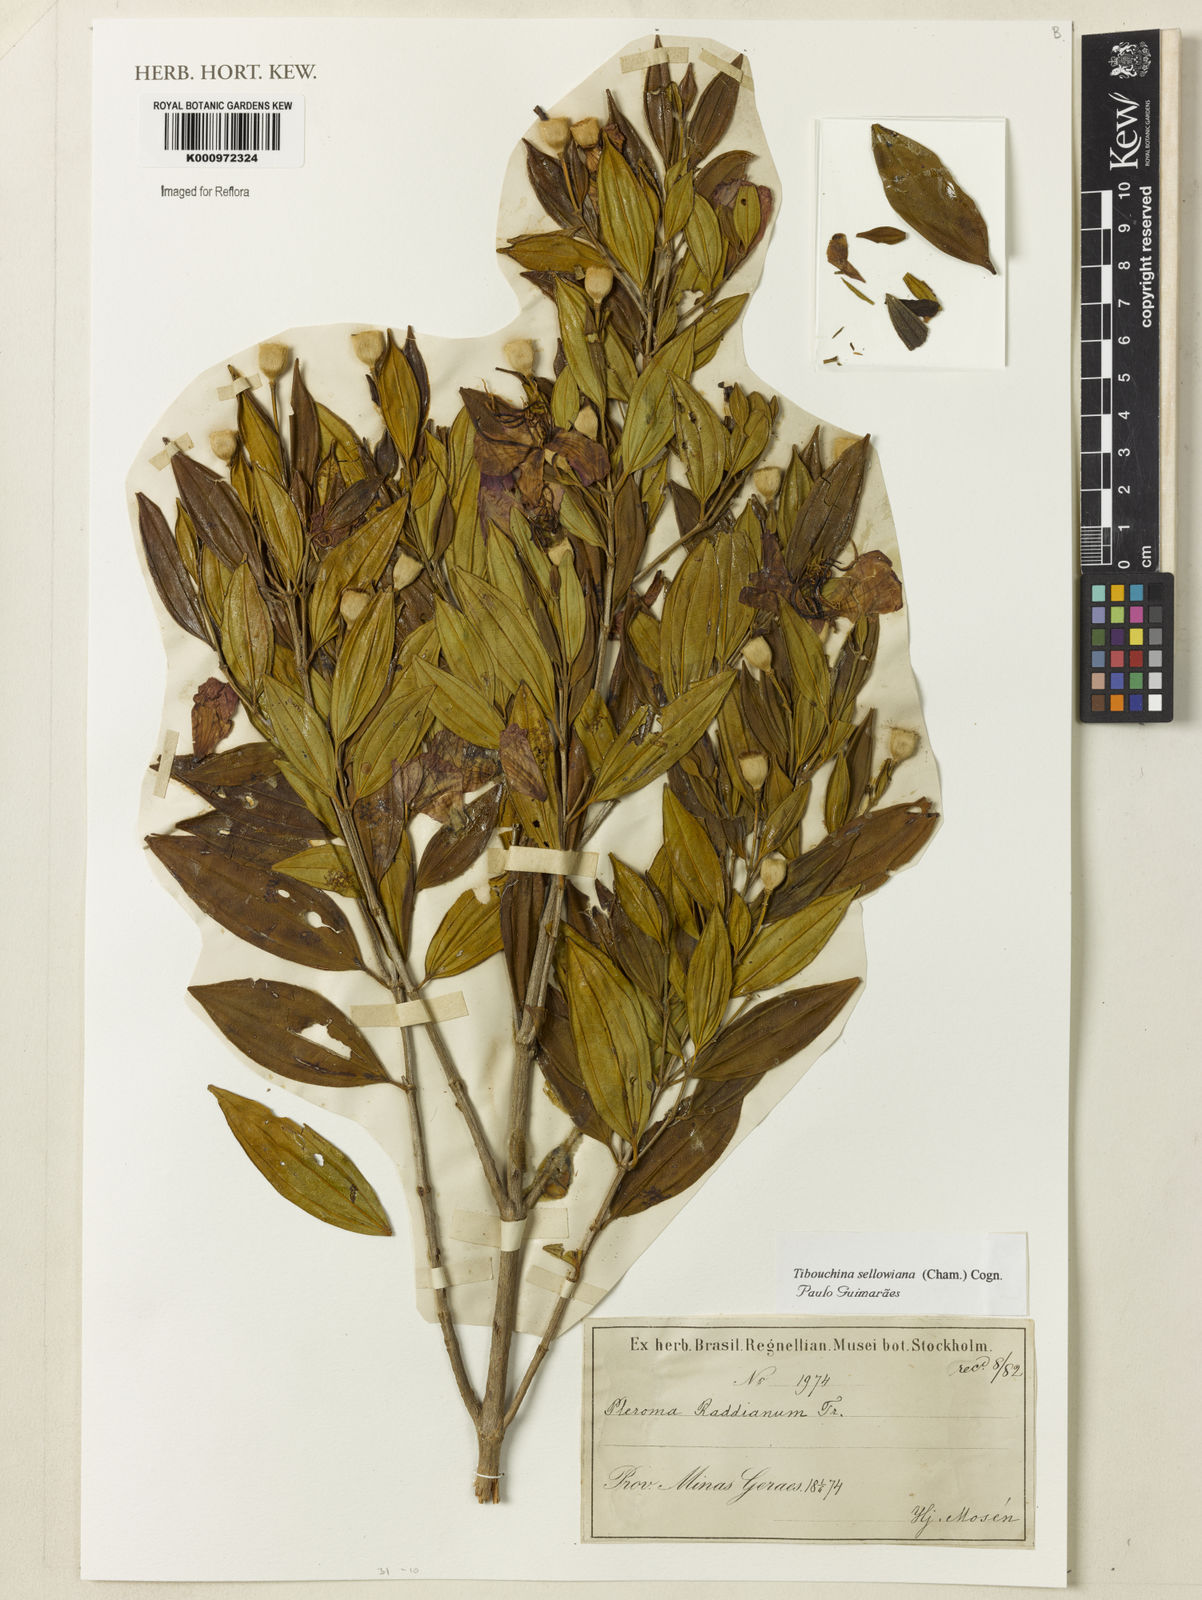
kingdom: Plantae
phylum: Tracheophyta
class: Magnoliopsida
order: Myrtales
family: Melastomataceae
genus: Pleroma
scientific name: Pleroma sellowianum
